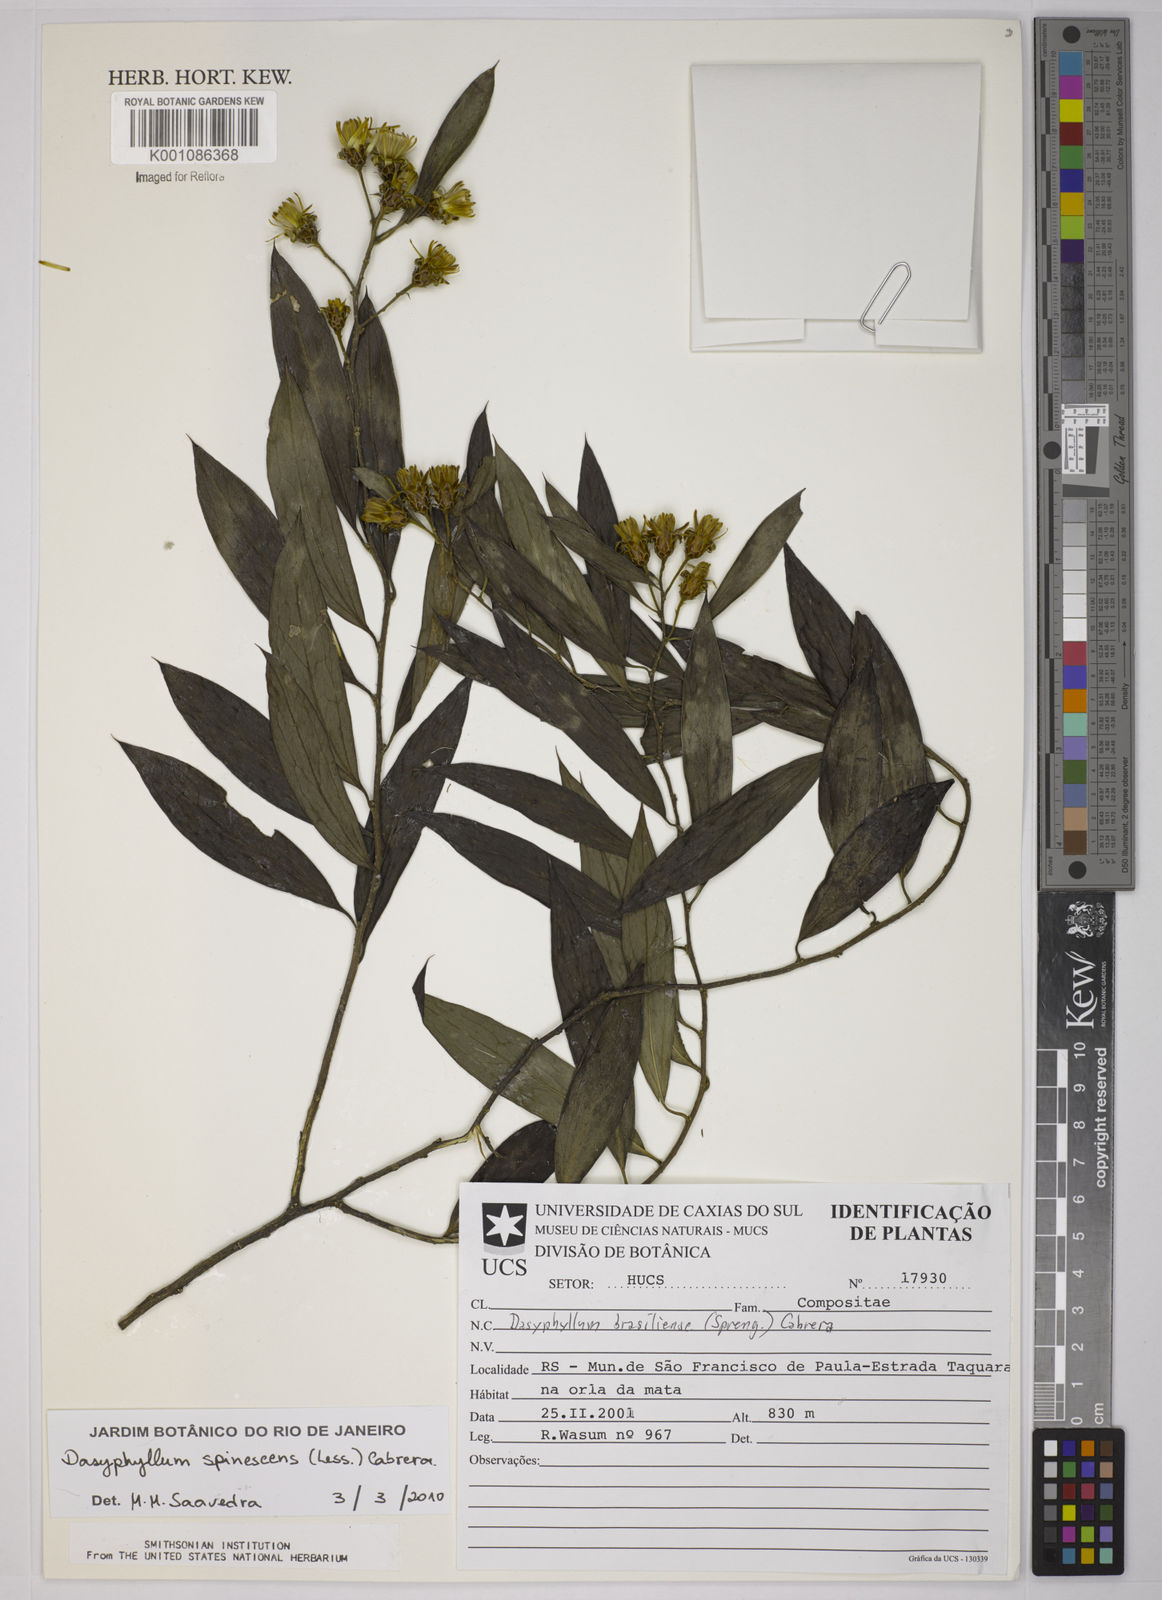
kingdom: Plantae
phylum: Tracheophyta
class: Magnoliopsida
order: Asterales
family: Asteraceae
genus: Dasyphyllum
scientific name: Dasyphyllum spinescens
